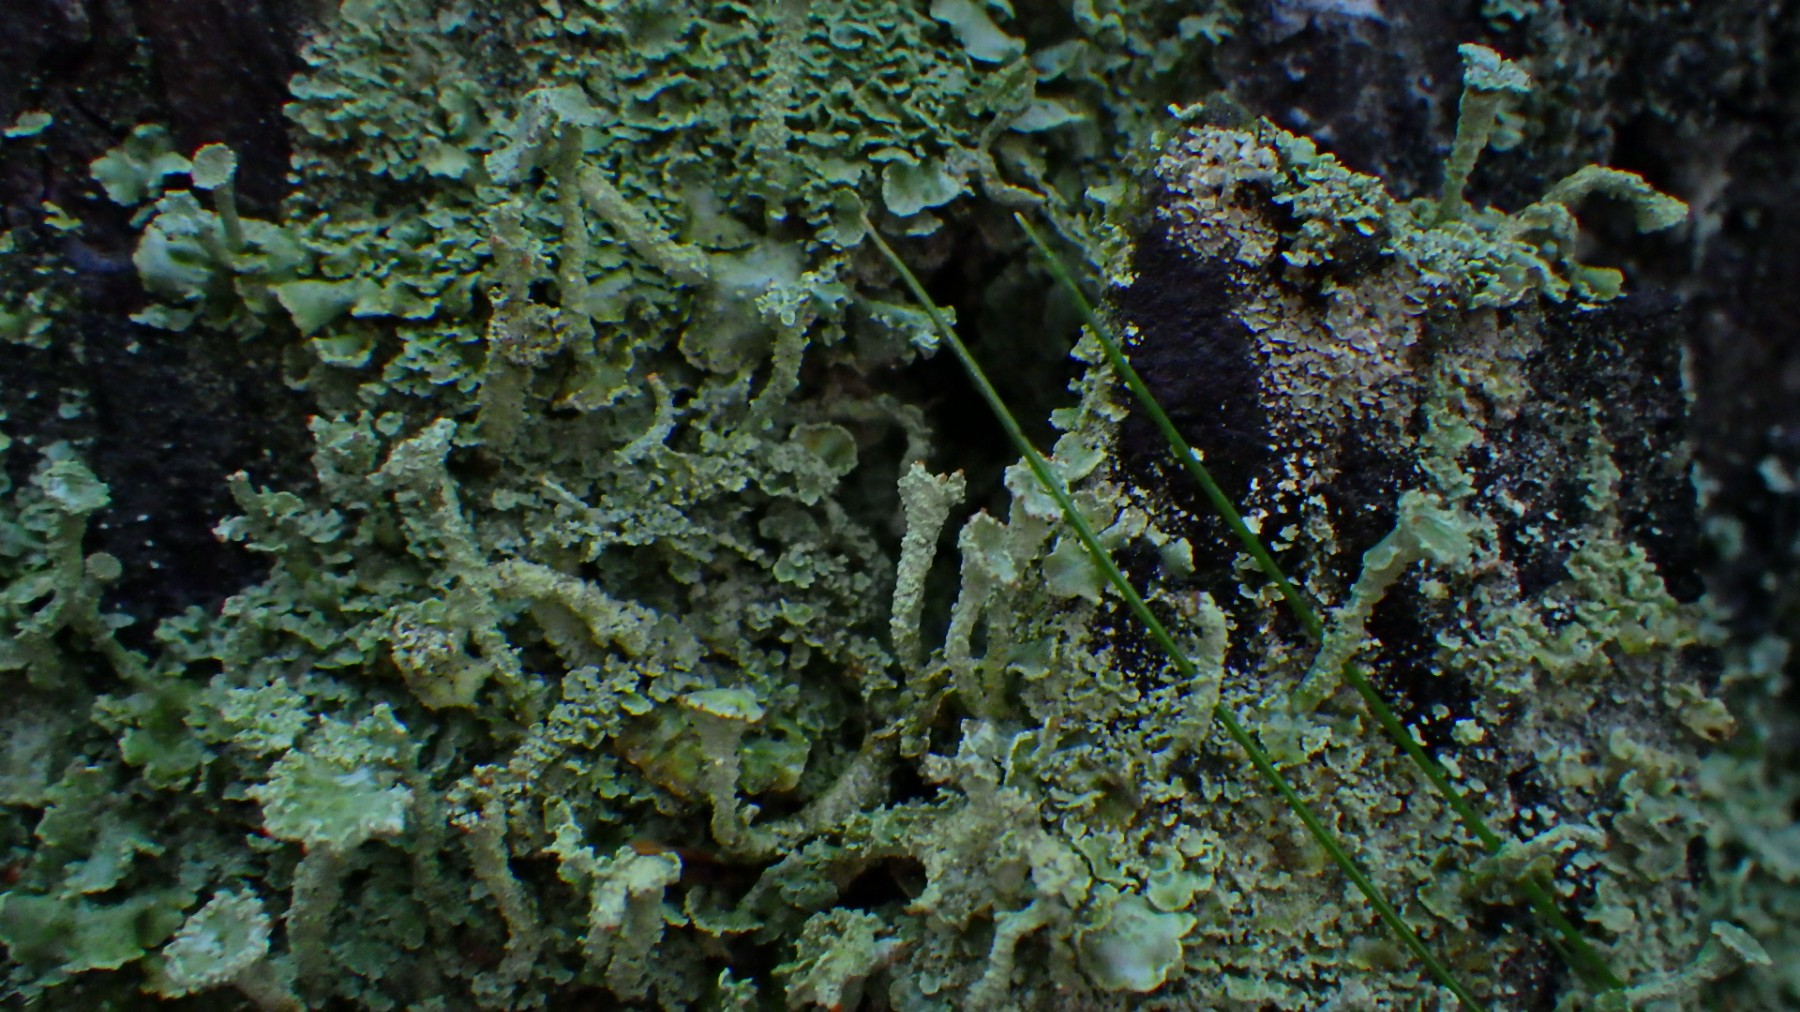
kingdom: Fungi
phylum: Ascomycota
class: Lecanoromycetes
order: Lecanorales
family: Cladoniaceae
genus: Cladonia
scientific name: Cladonia digitata
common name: finger-bægerlav
